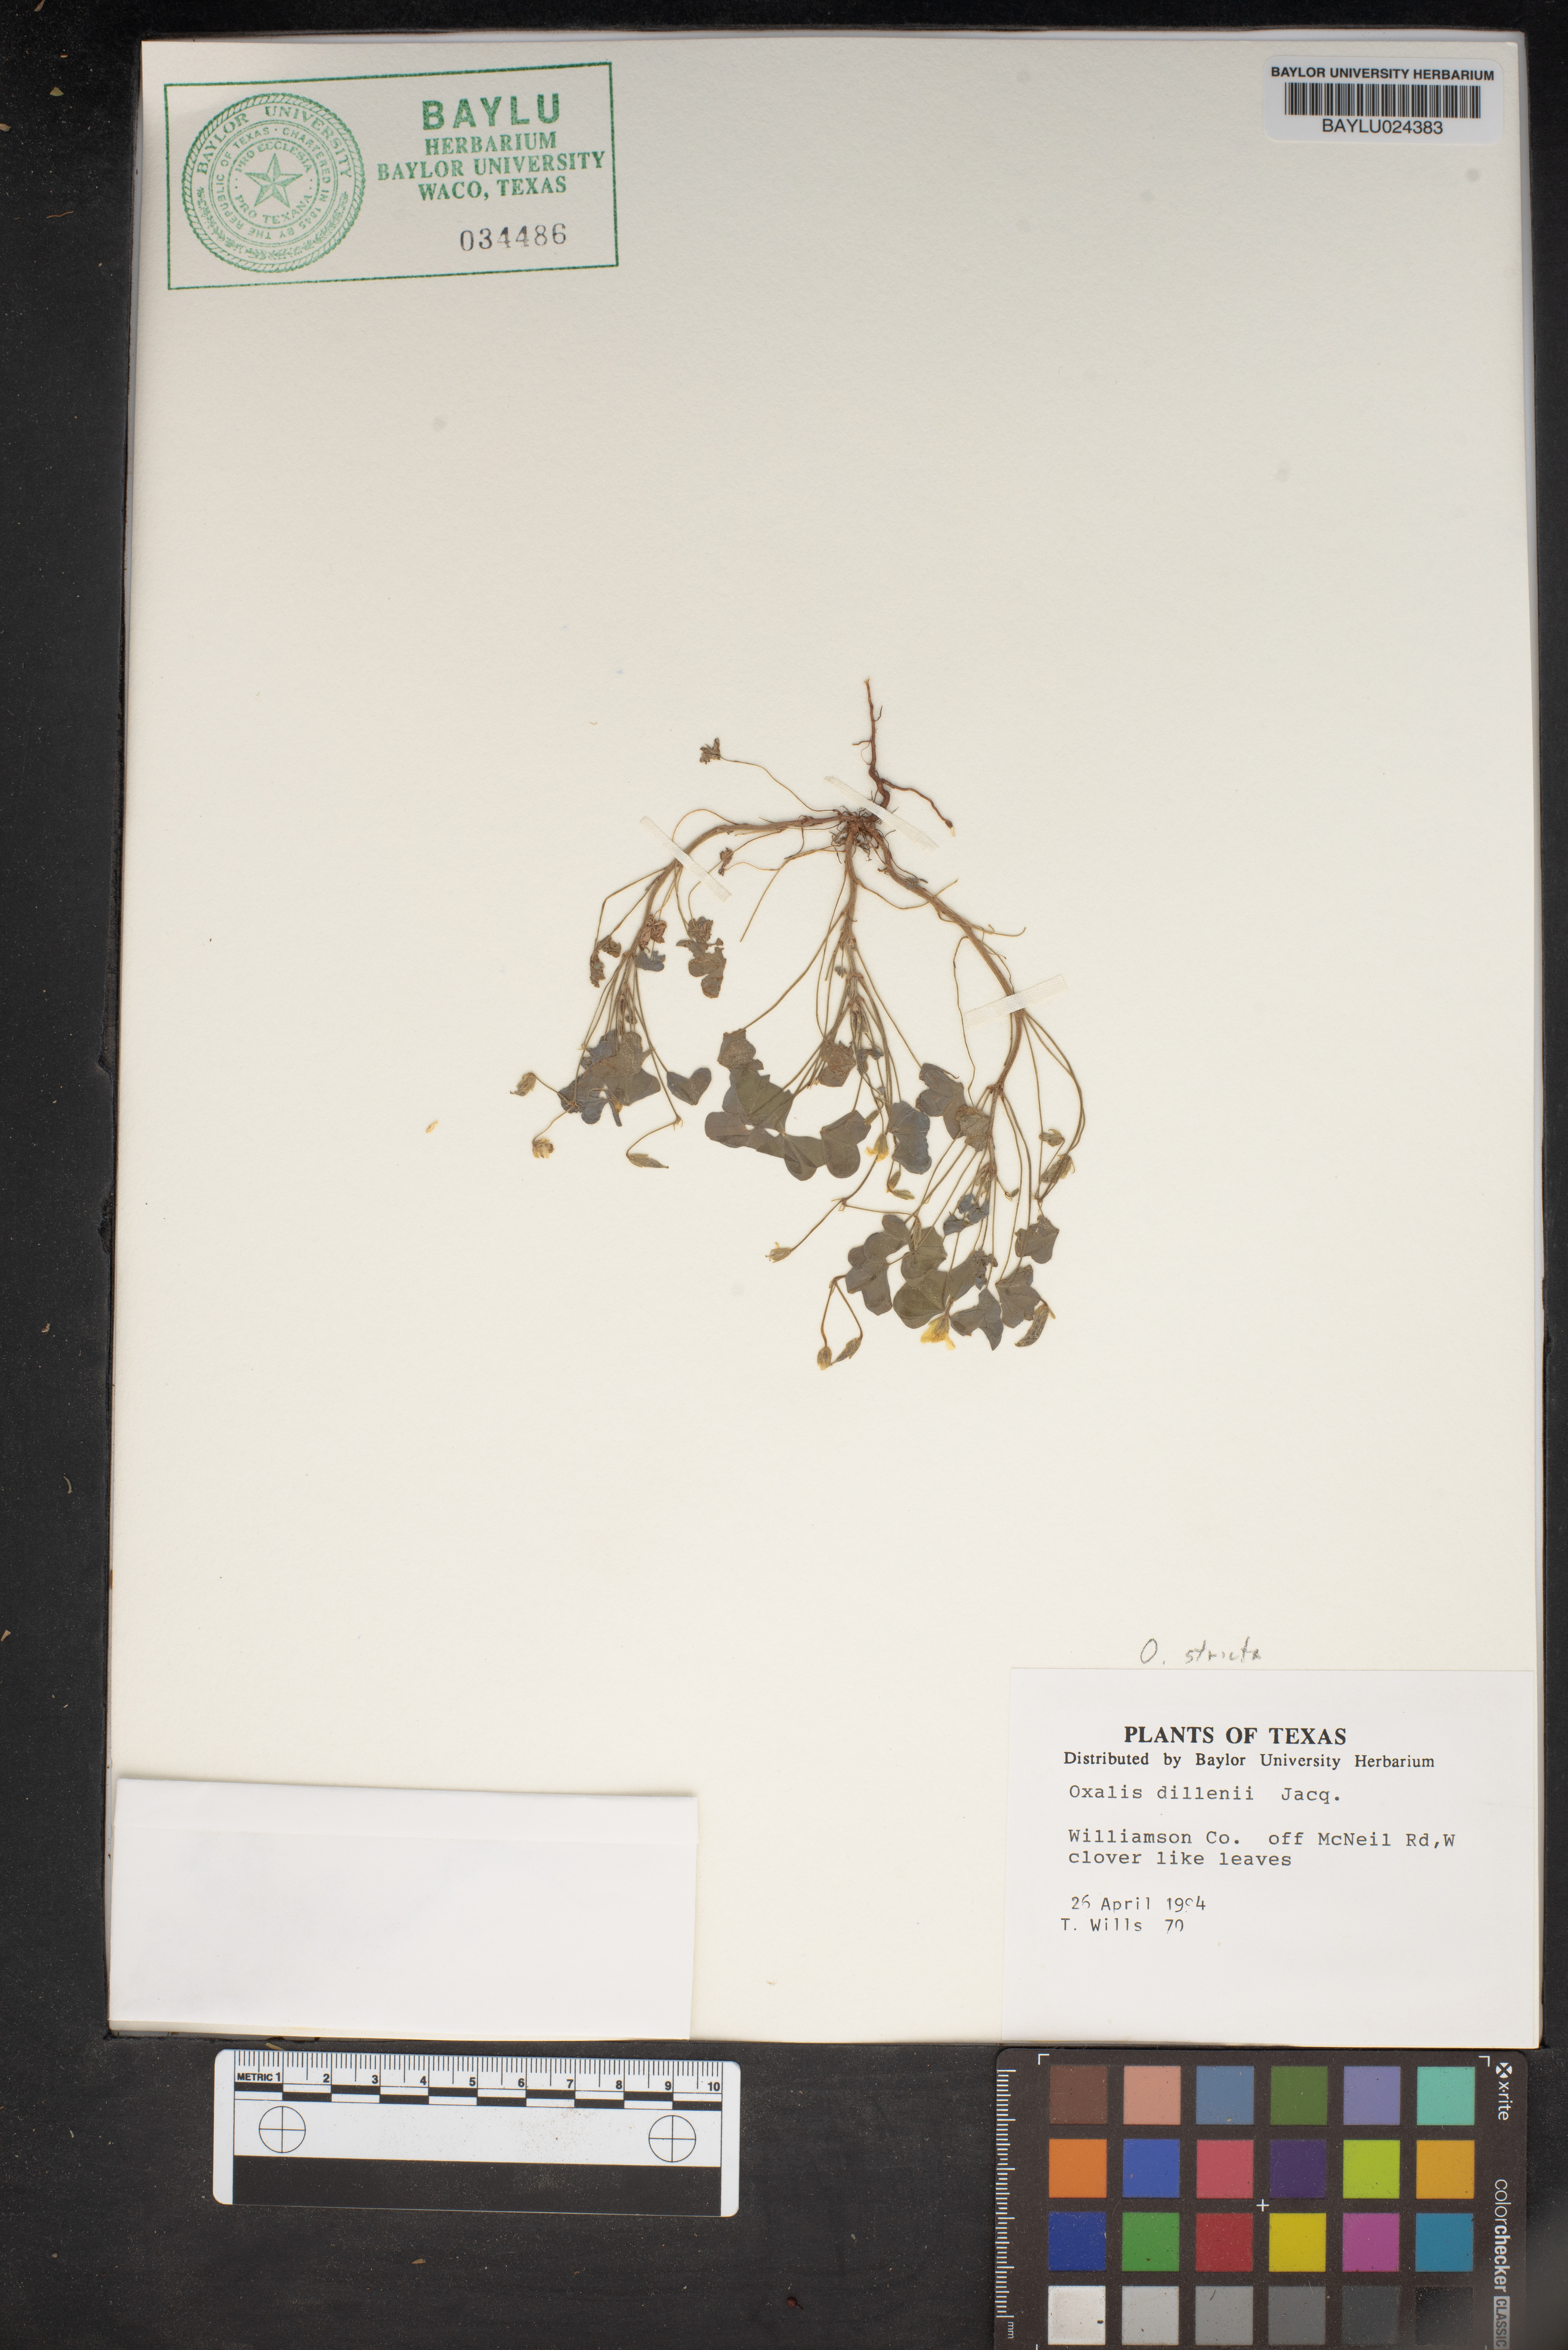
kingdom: Plantae
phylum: Tracheophyta
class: Magnoliopsida
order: Oxalidales
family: Oxalidaceae
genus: Oxalis
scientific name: Oxalis dillenii
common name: Sussex yellow-sorrel
